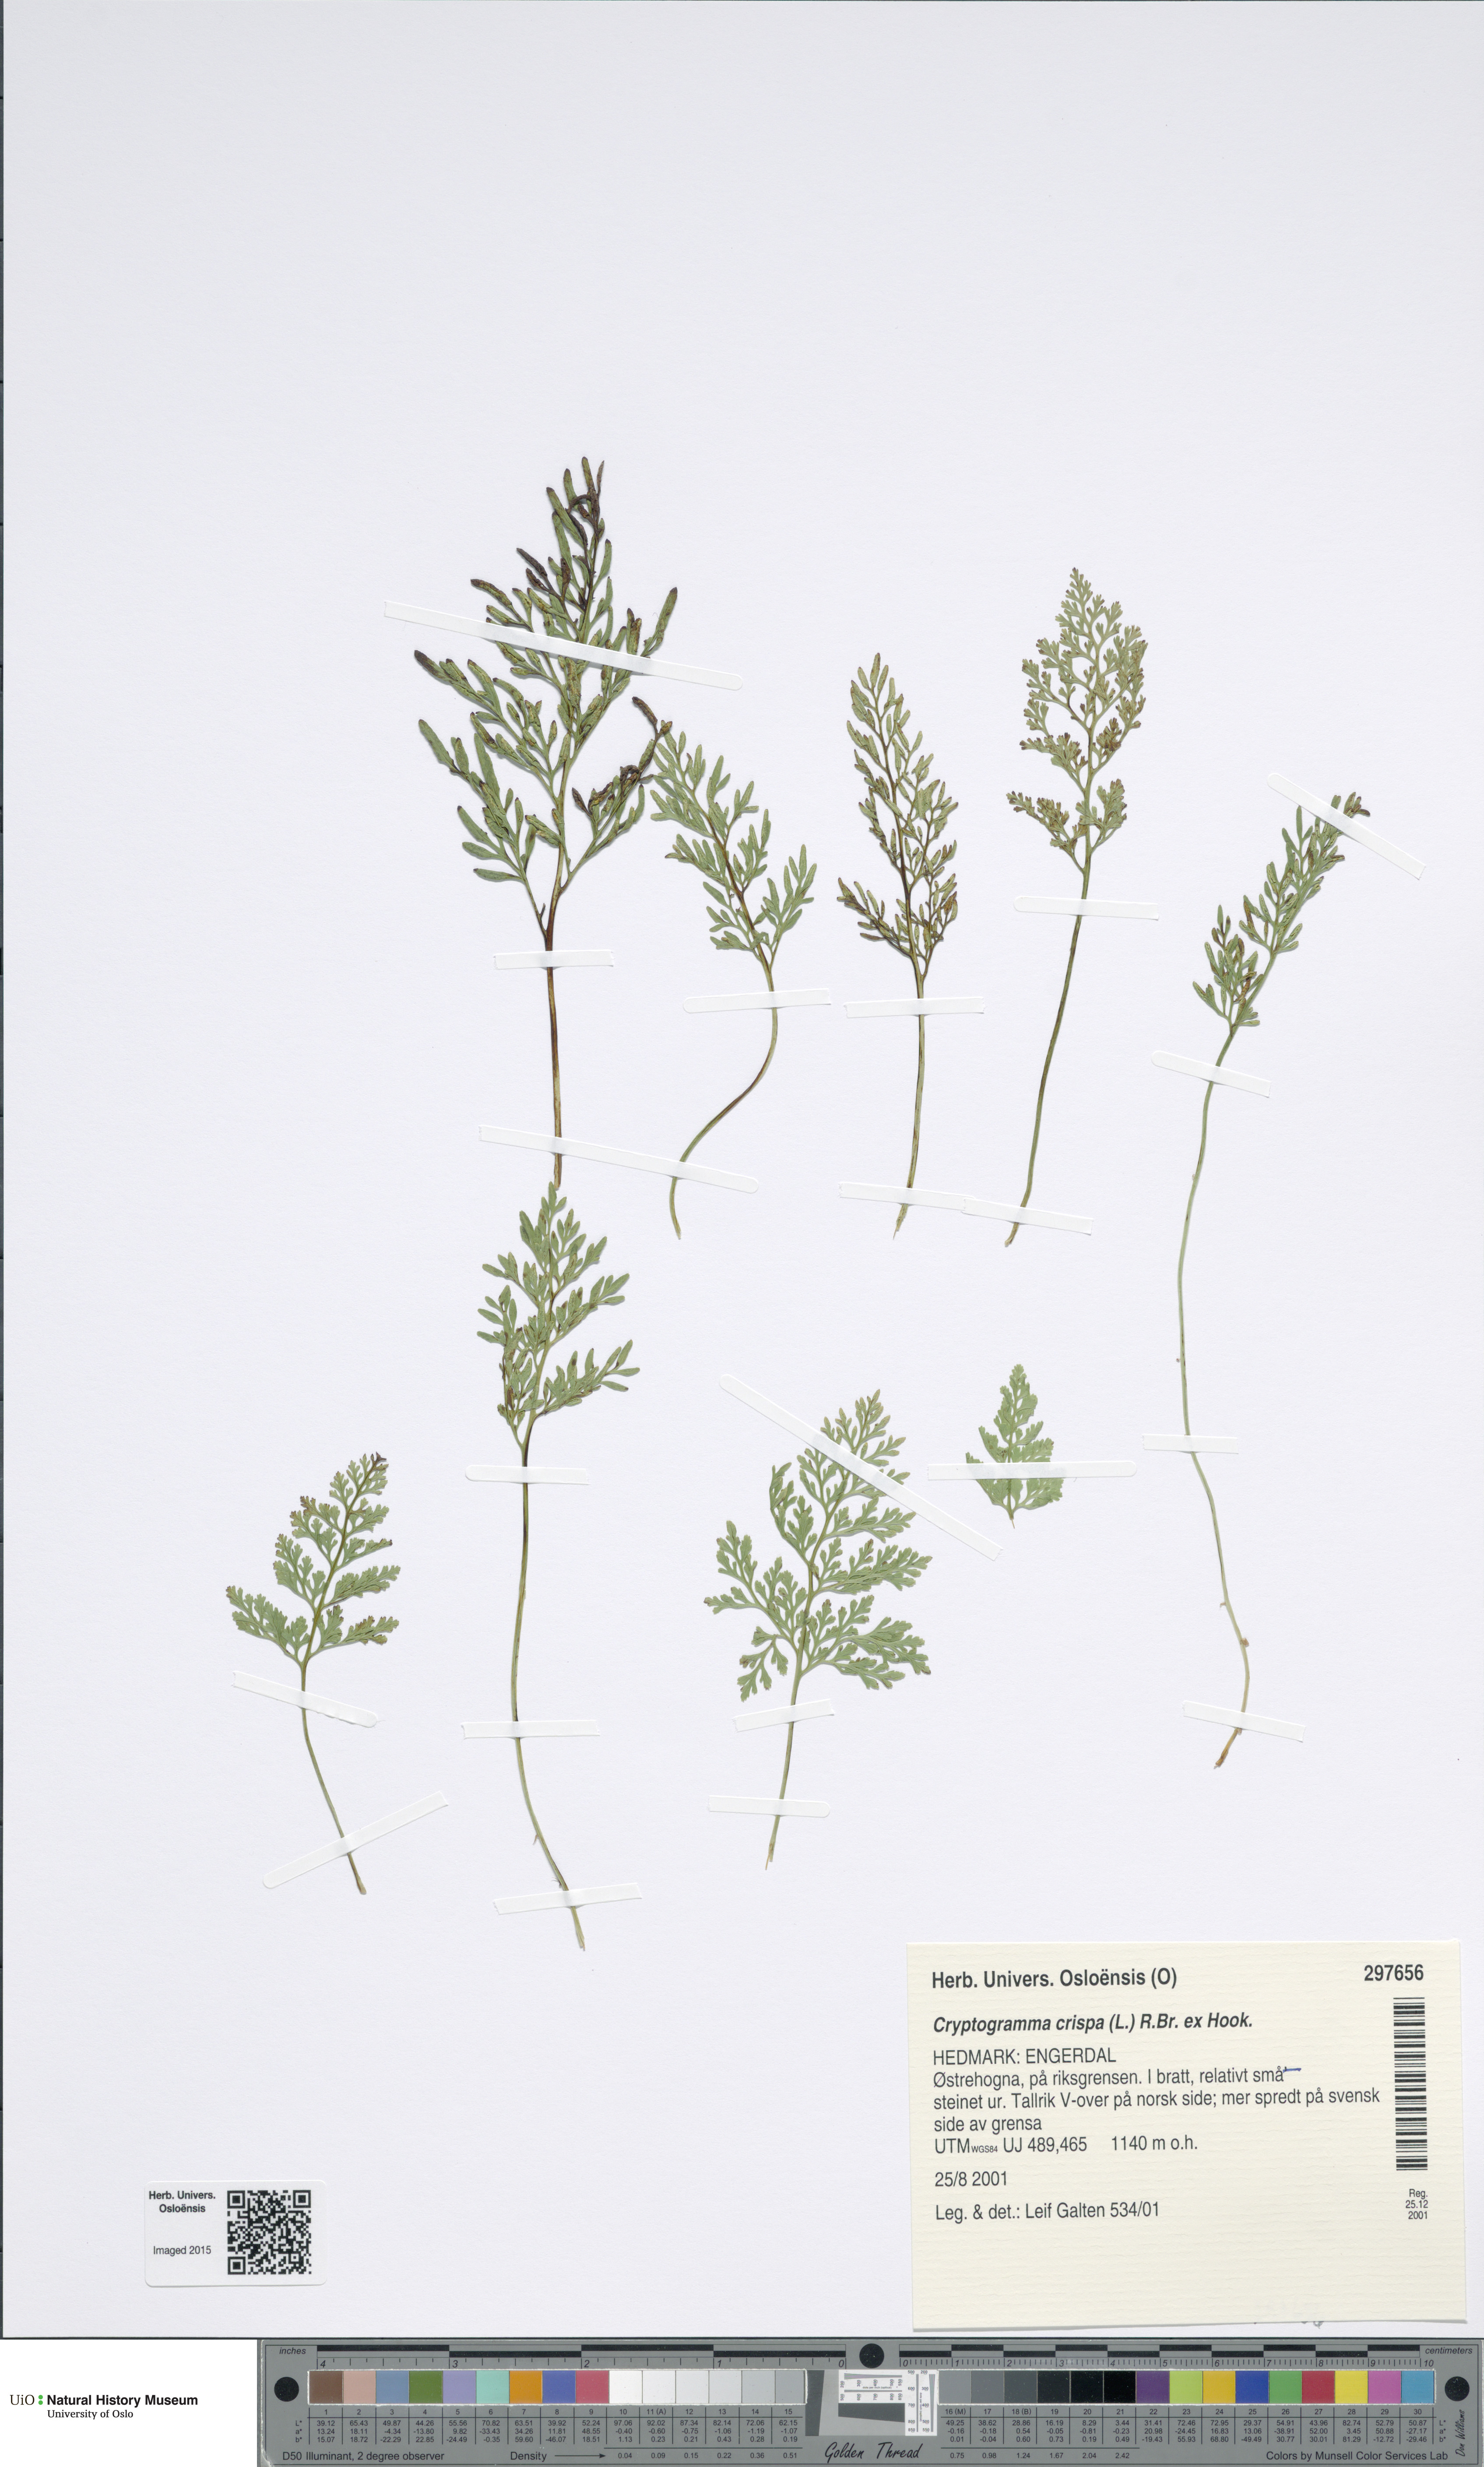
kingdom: Plantae
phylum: Tracheophyta
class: Polypodiopsida
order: Polypodiales
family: Pteridaceae
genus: Cryptogramma
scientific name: Cryptogramma crispa
